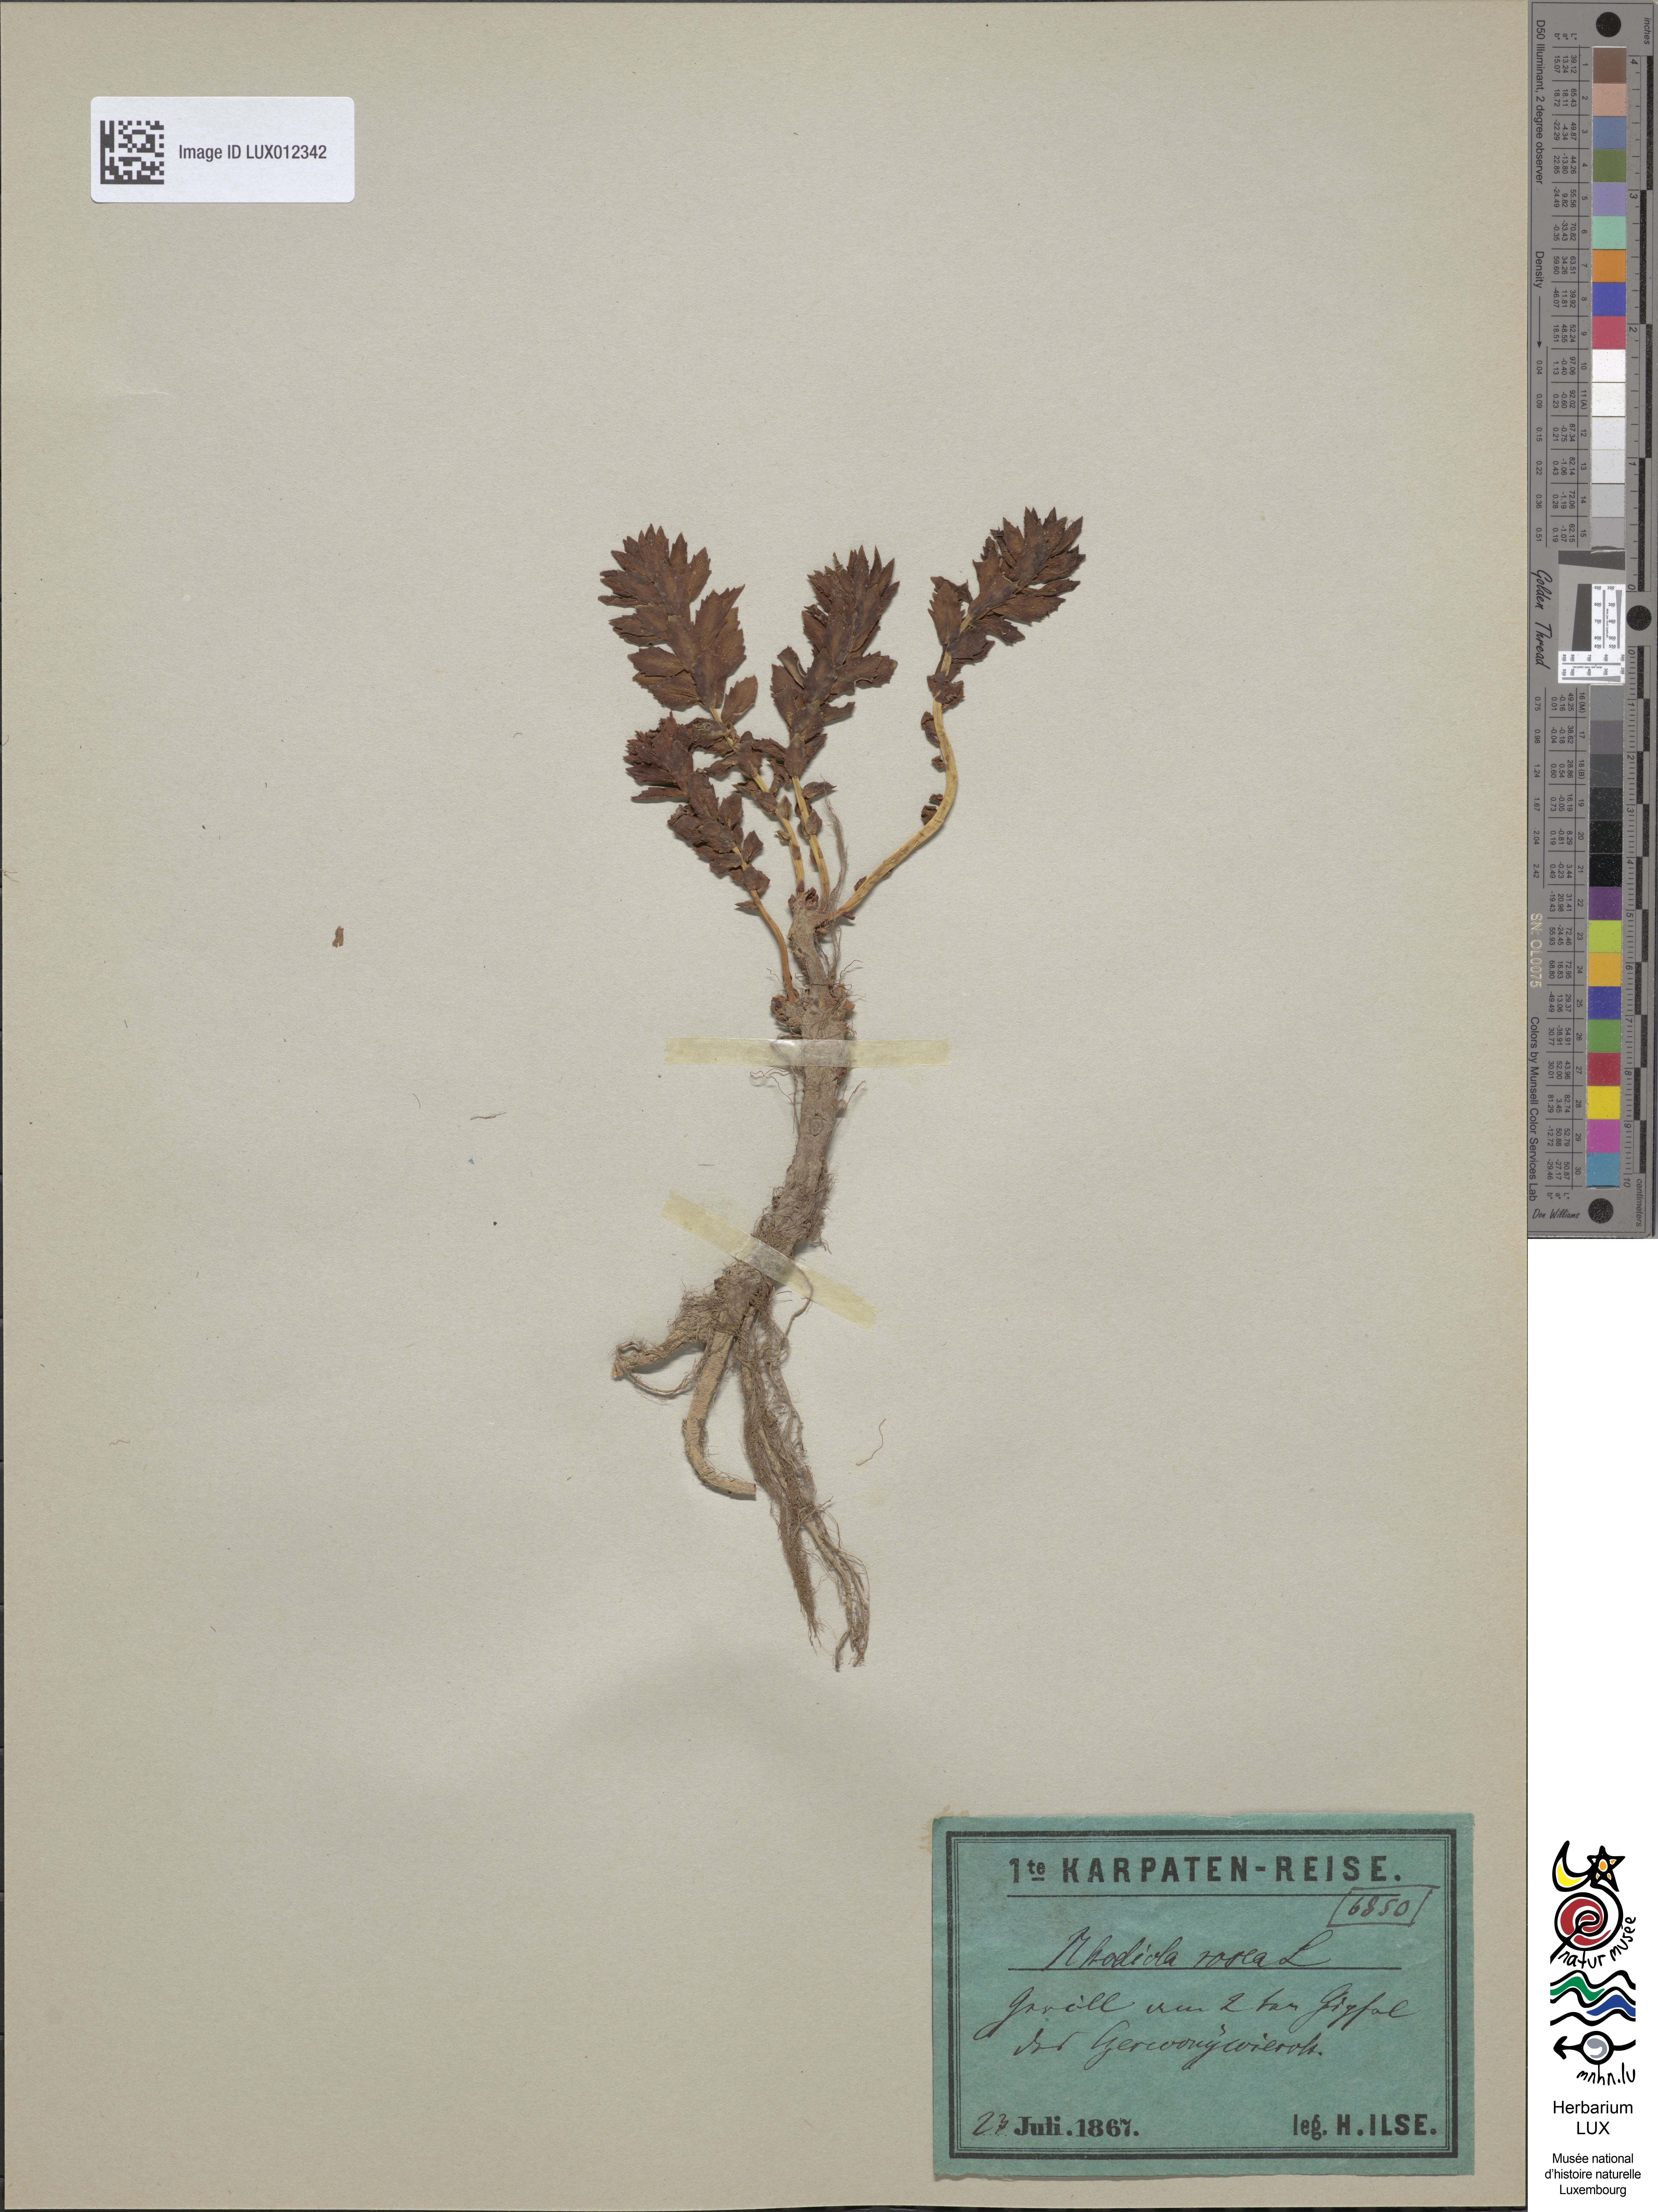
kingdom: Plantae
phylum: Tracheophyta
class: Magnoliopsida
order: Saxifragales
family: Crassulaceae
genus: Rhodiola
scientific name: Rhodiola rosea
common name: Roseroot
